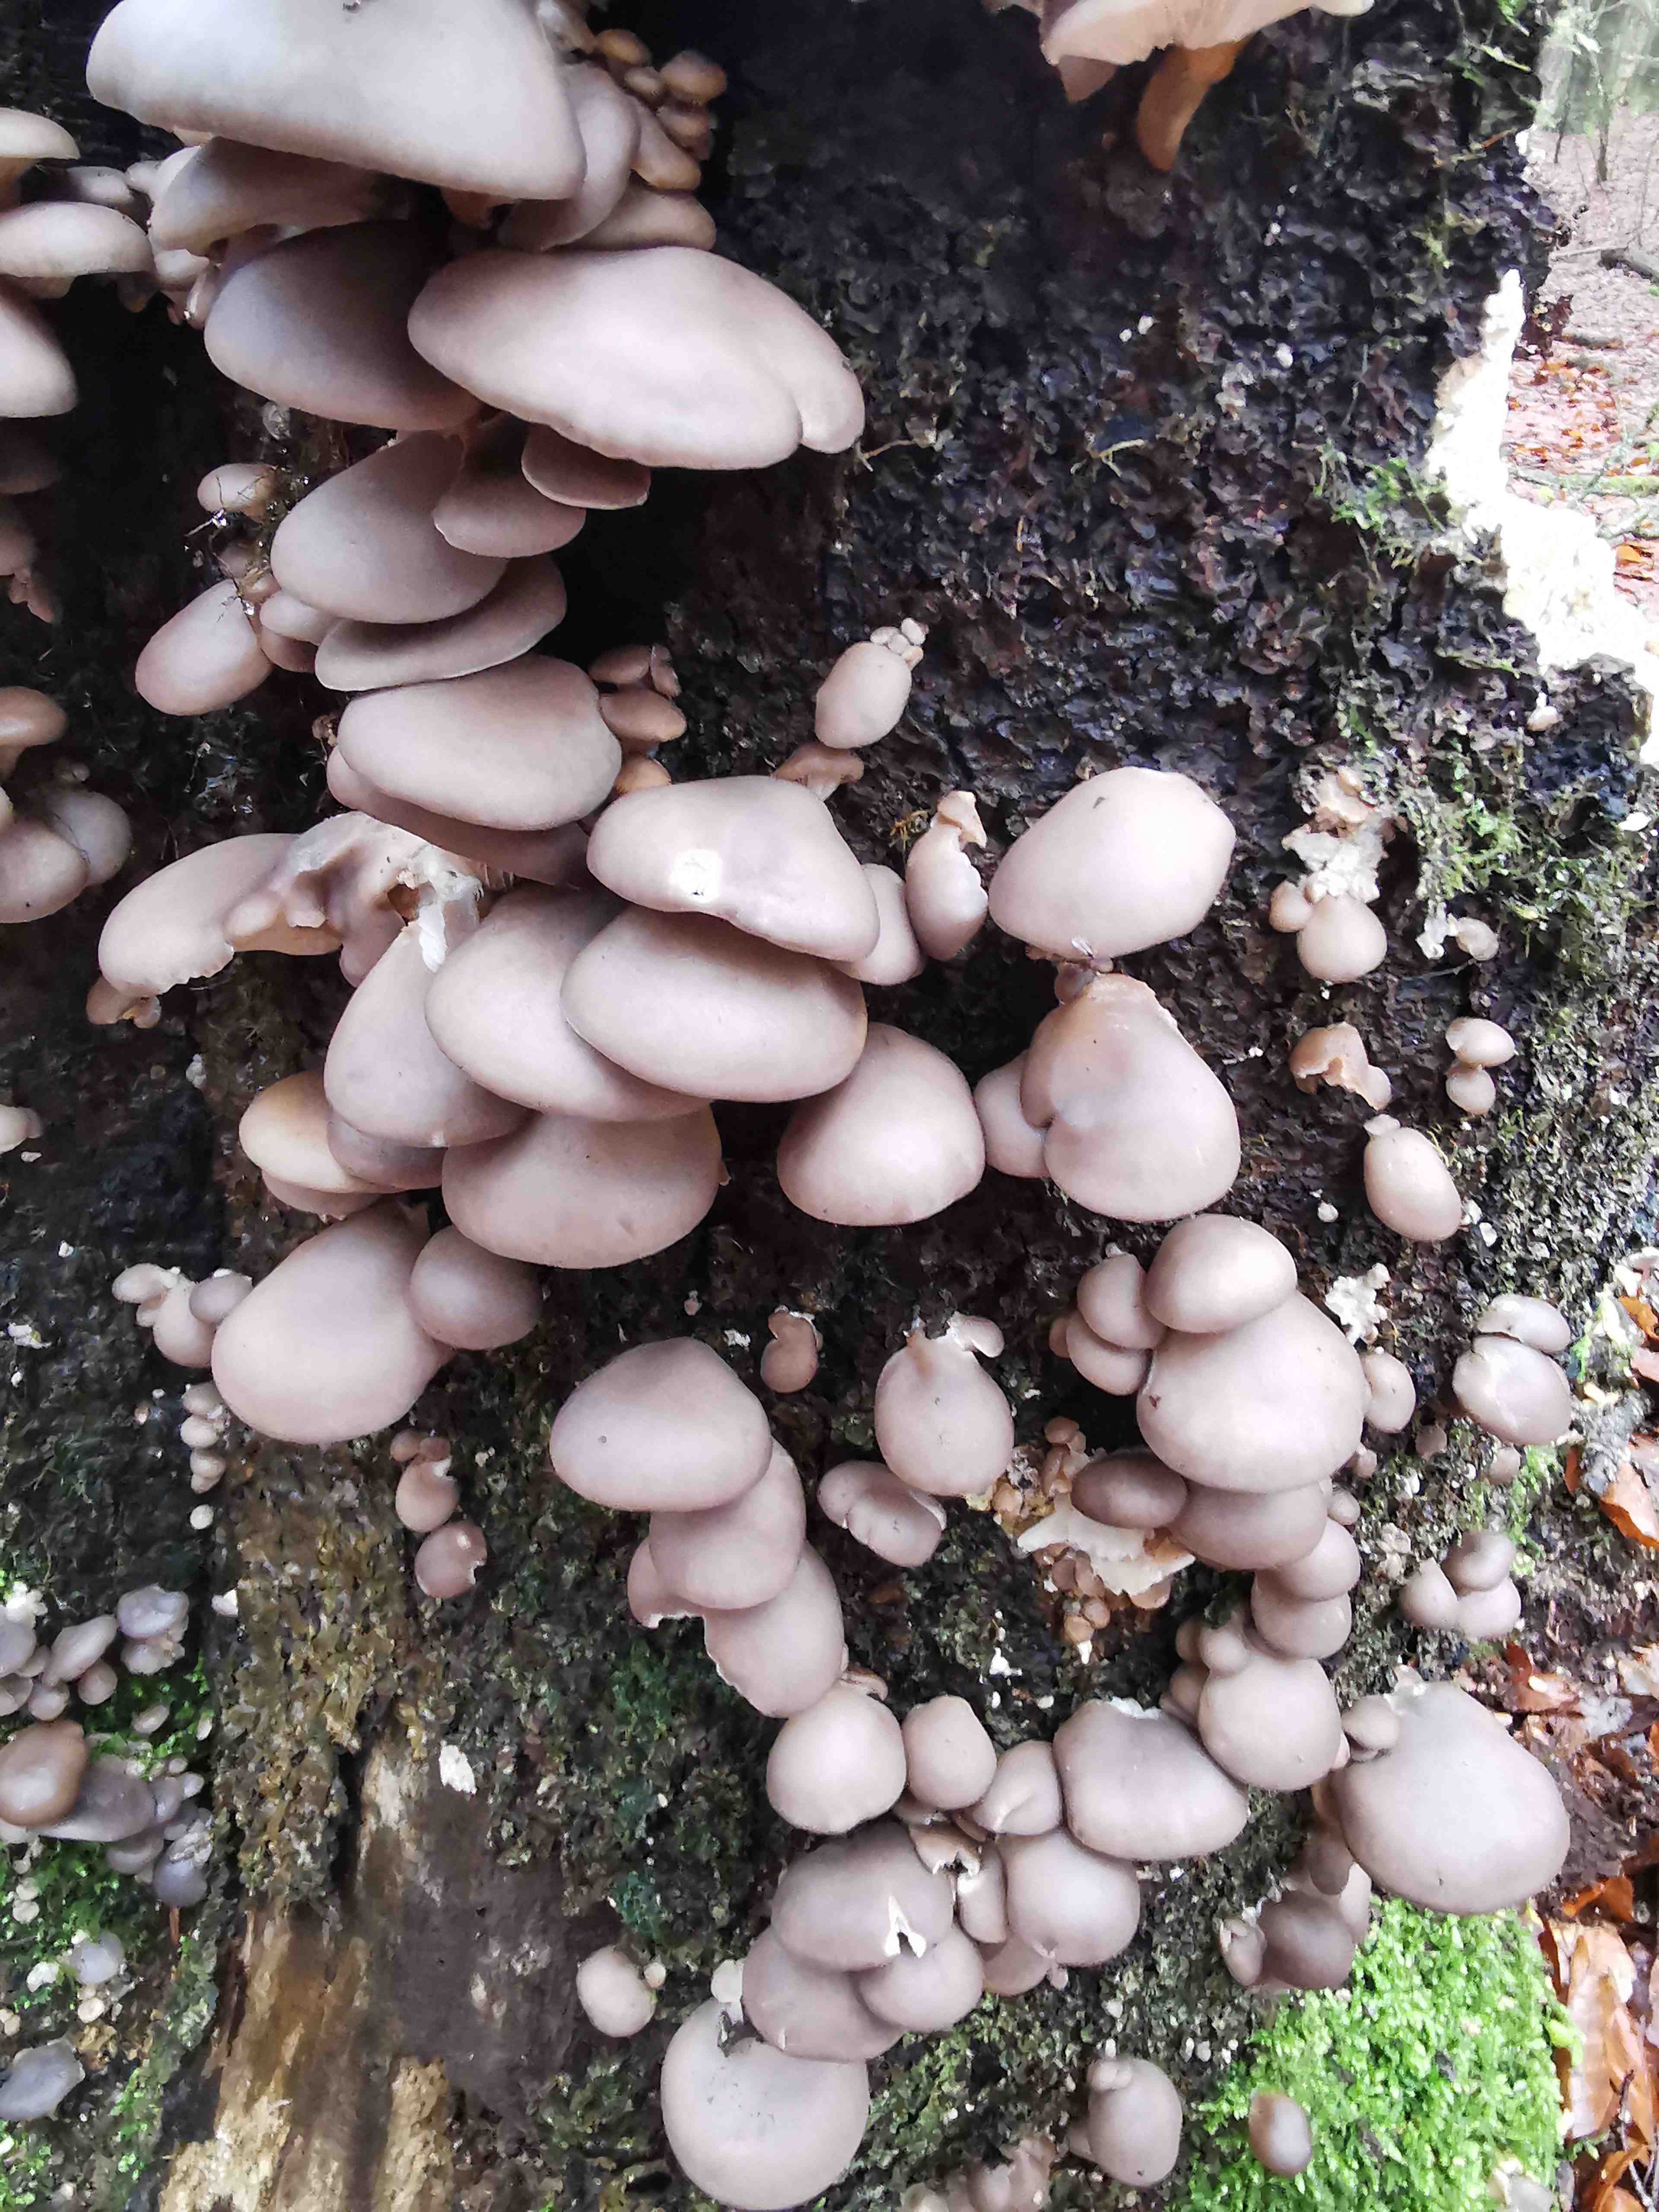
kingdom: Fungi
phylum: Basidiomycota
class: Agaricomycetes
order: Agaricales
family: Pleurotaceae
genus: Pleurotus
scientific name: Pleurotus ostreatus
